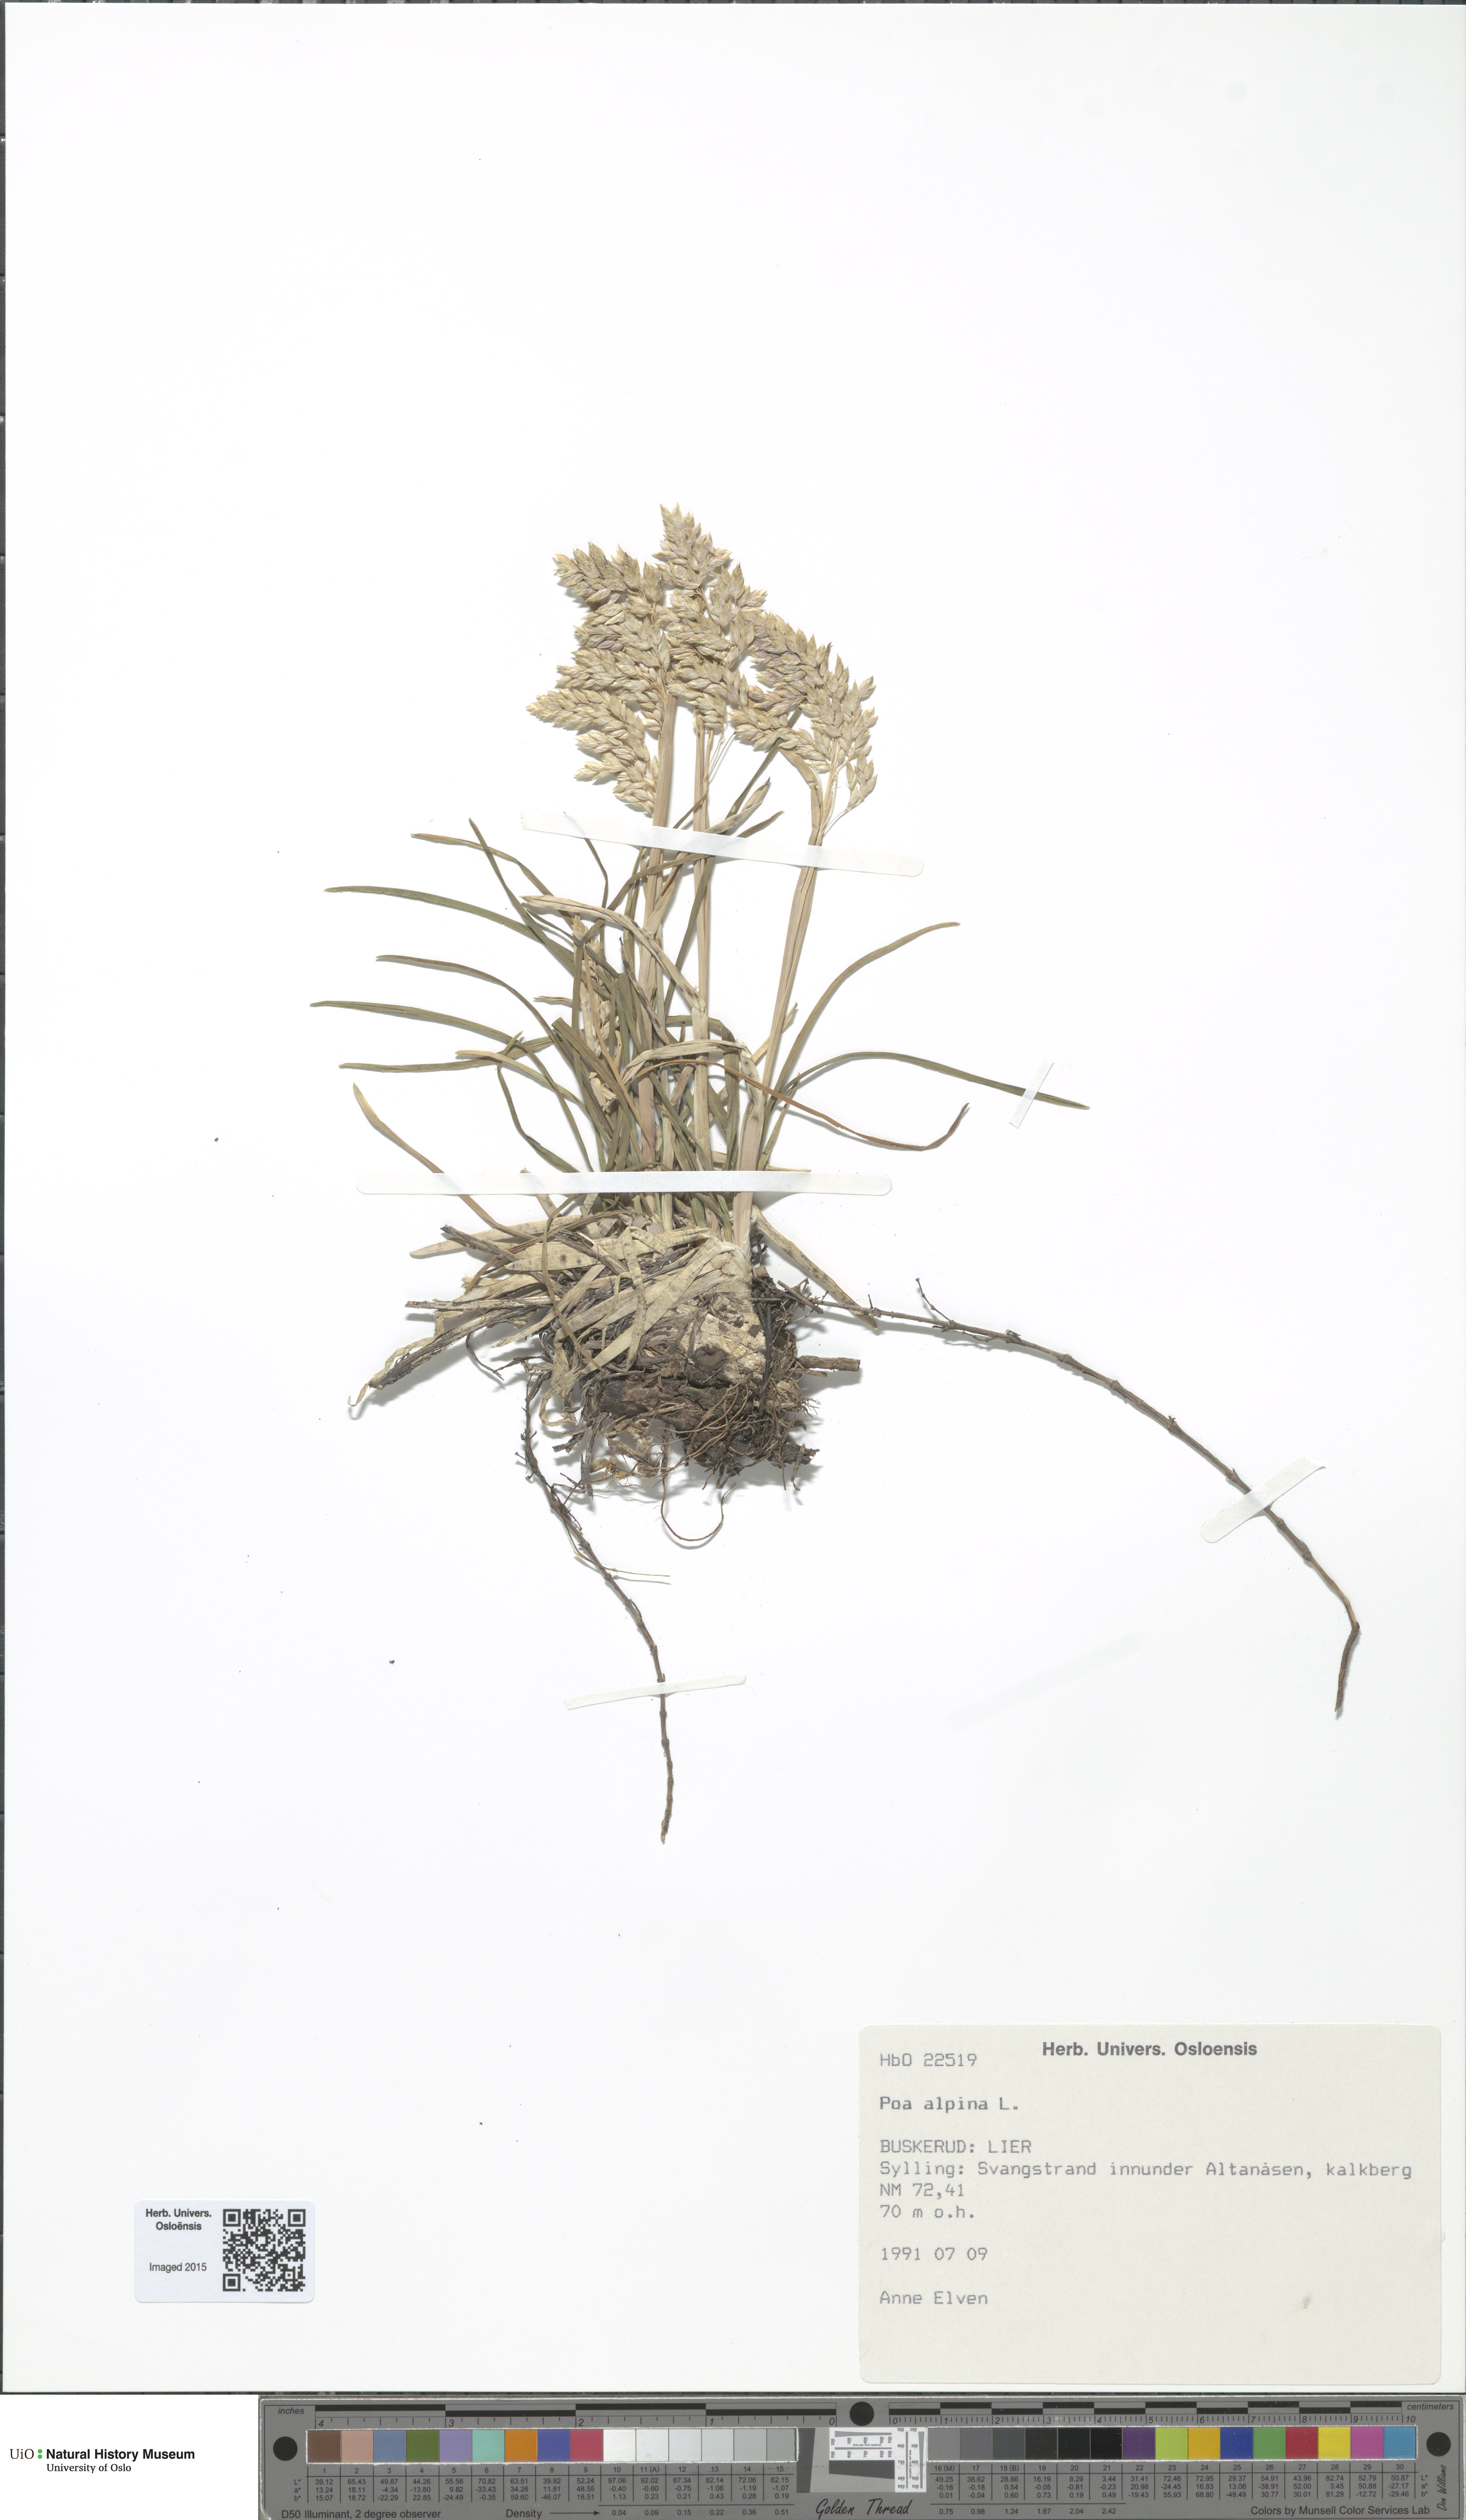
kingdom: Plantae
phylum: Tracheophyta
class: Liliopsida
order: Poales
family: Poaceae
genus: Poa
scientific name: Poa alpina
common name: Alpine bluegrass
